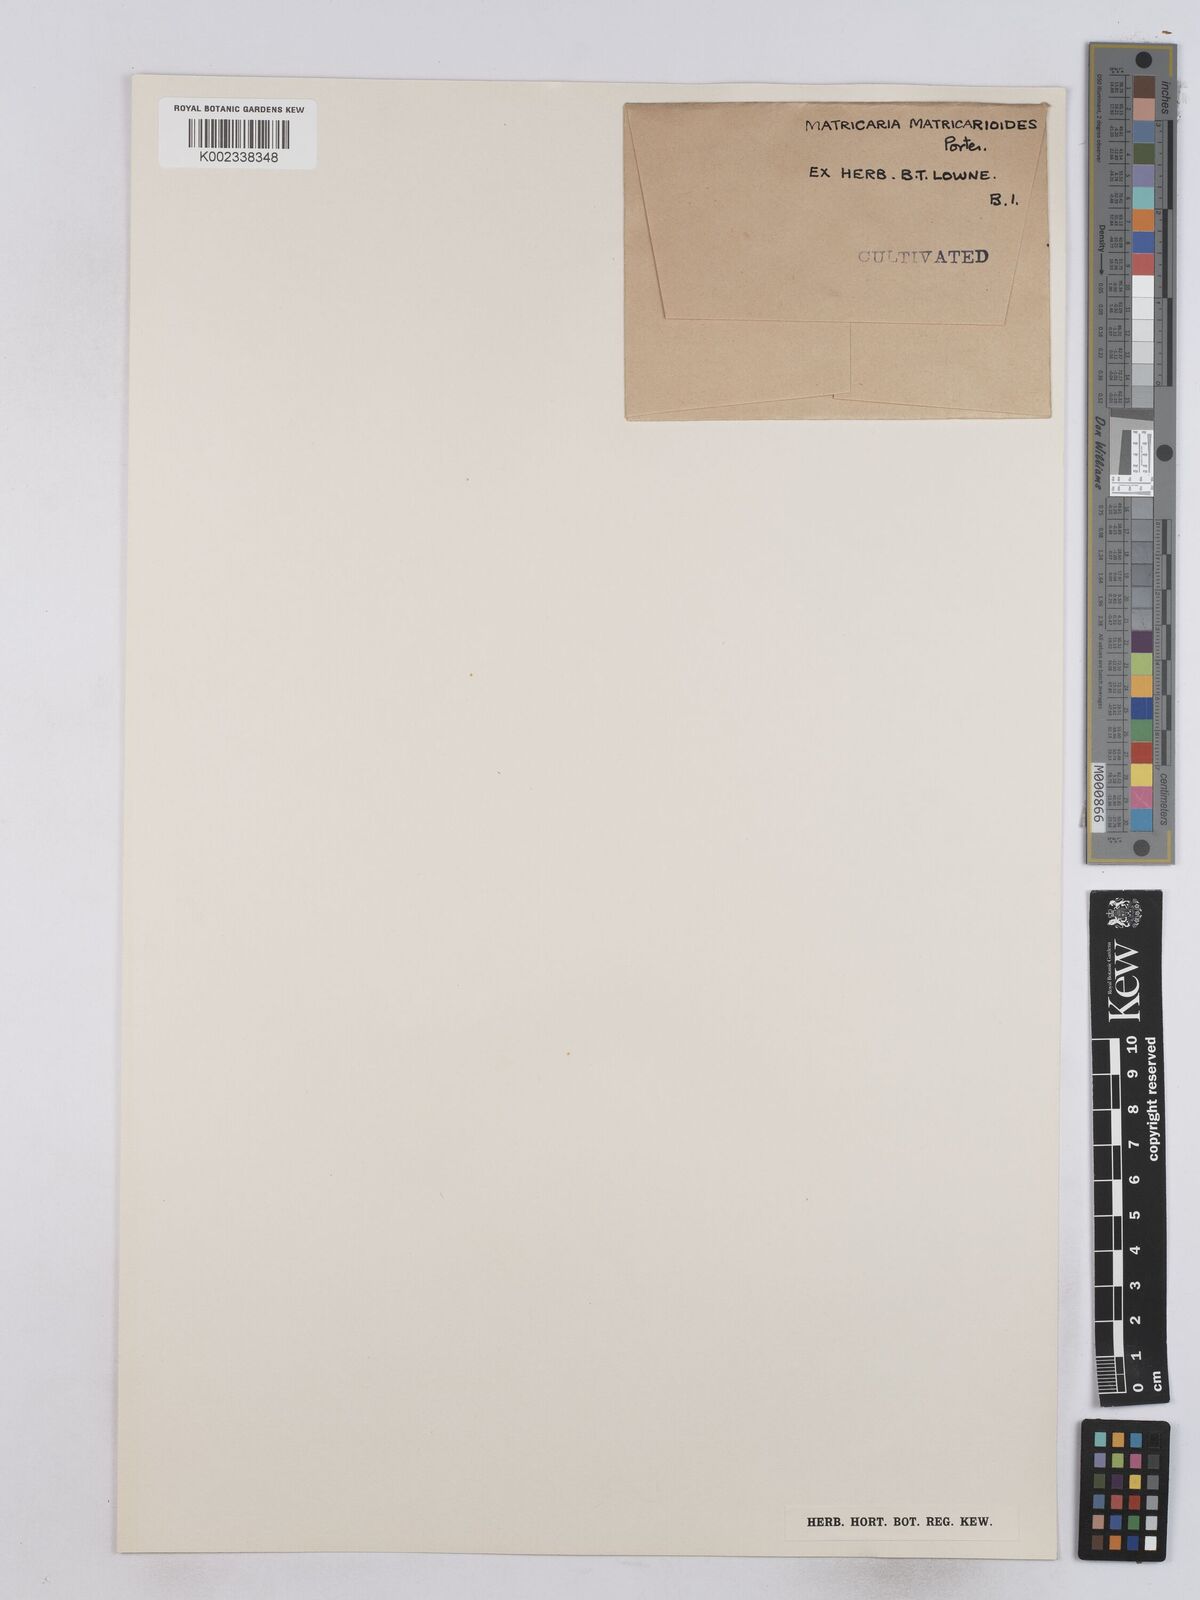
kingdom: Plantae
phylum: Tracheophyta
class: Magnoliopsida
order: Asterales
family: Asteraceae
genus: Matricaria
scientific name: Matricaria discoidea
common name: Disc mayweed
